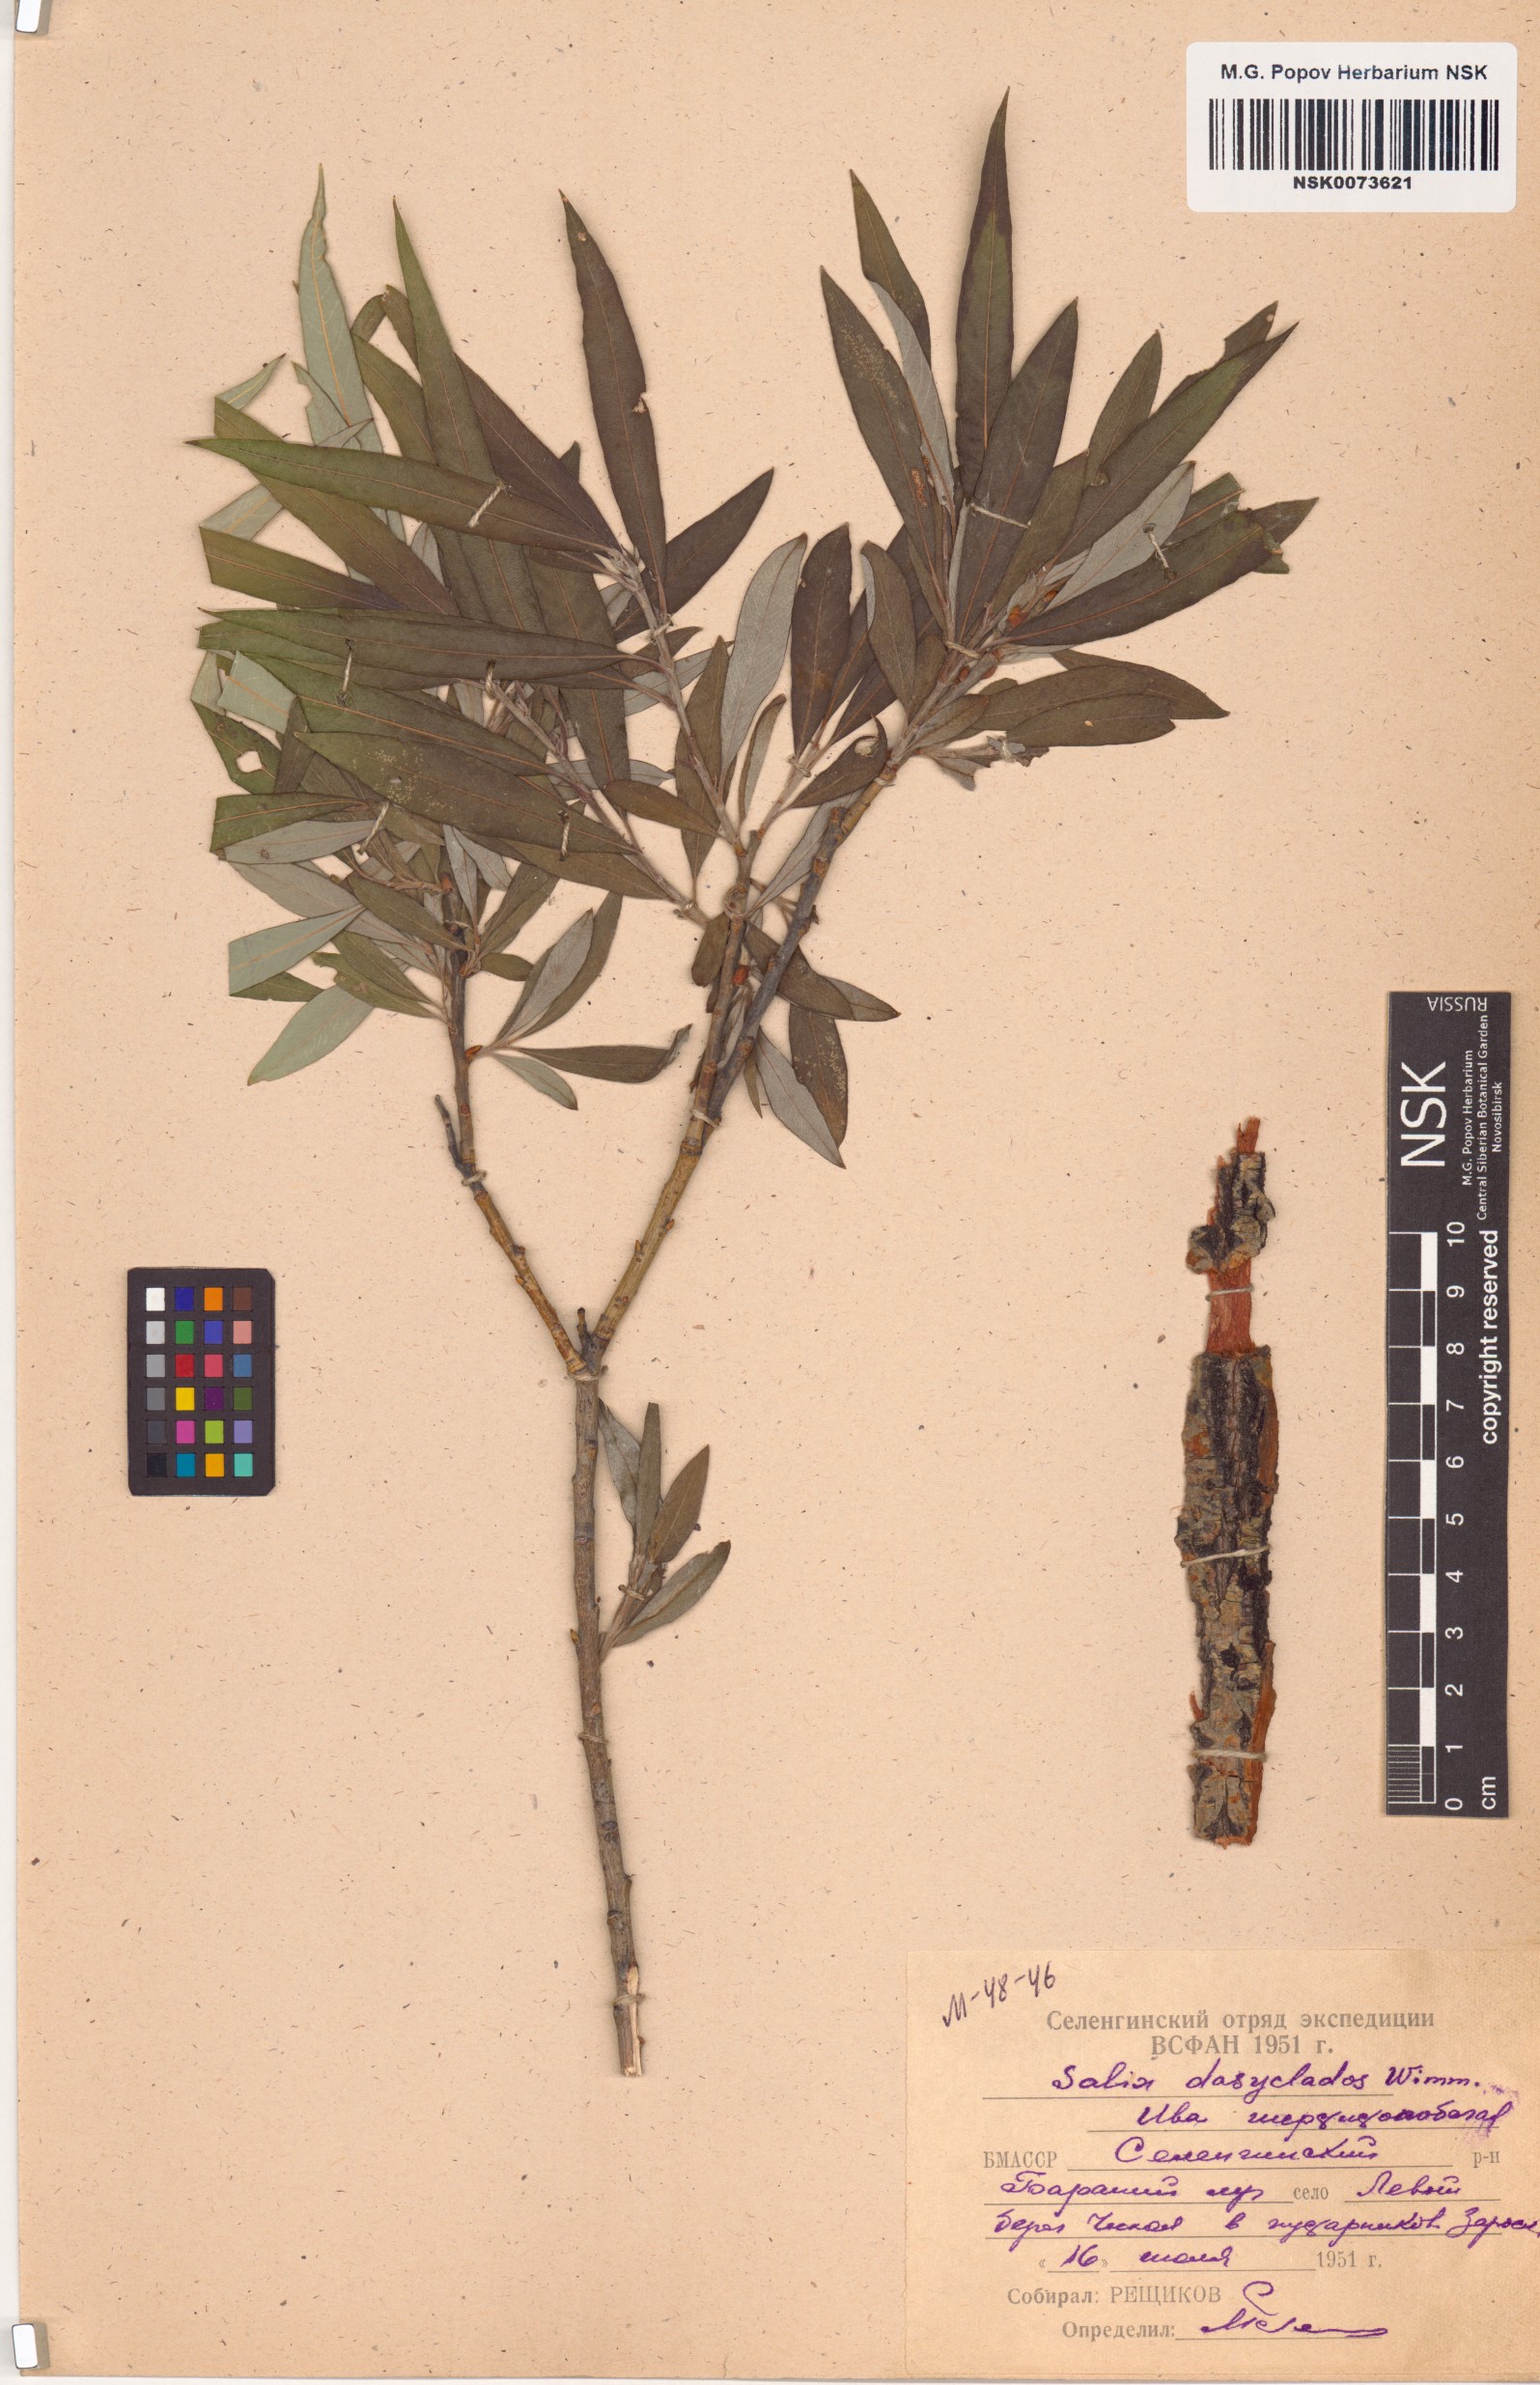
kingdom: Plantae
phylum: Tracheophyta
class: Magnoliopsida
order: Malpighiales
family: Salicaceae
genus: Salix
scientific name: Salix gmelinii
